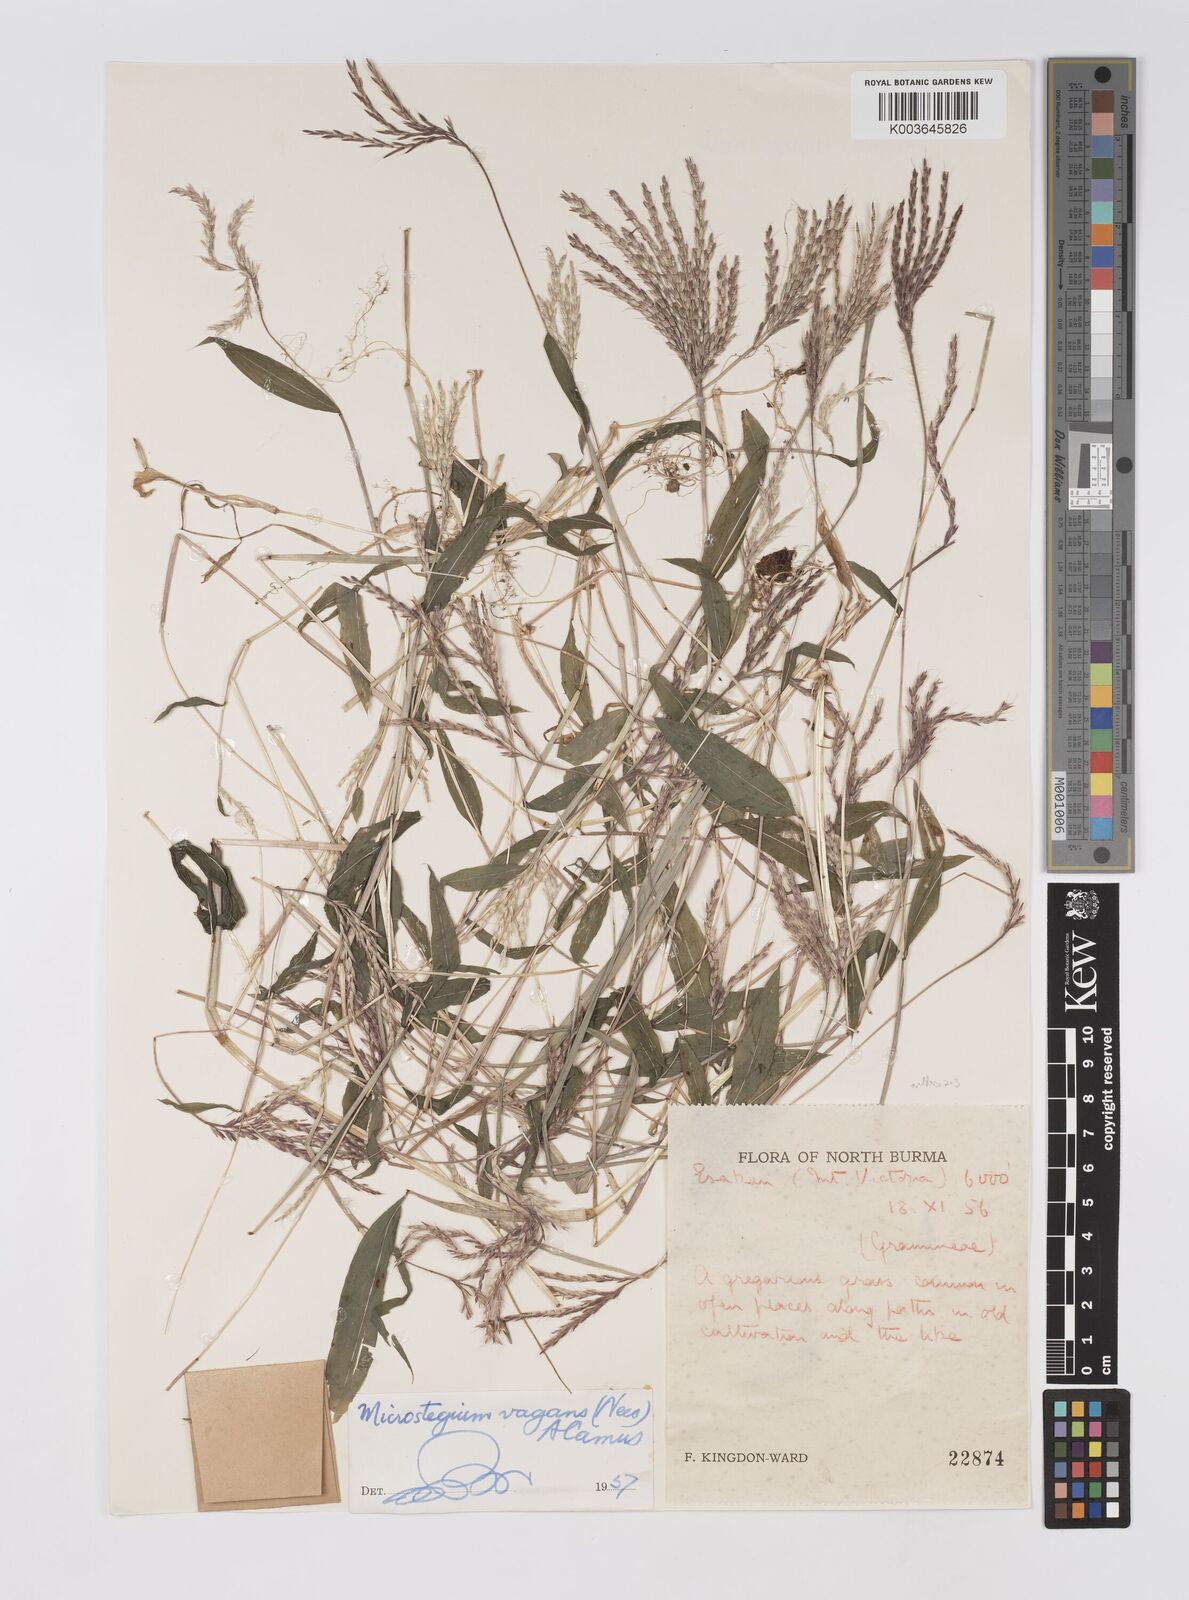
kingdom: Plantae
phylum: Tracheophyta
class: Liliopsida
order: Poales
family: Poaceae
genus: Microstegium
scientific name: Microstegium
